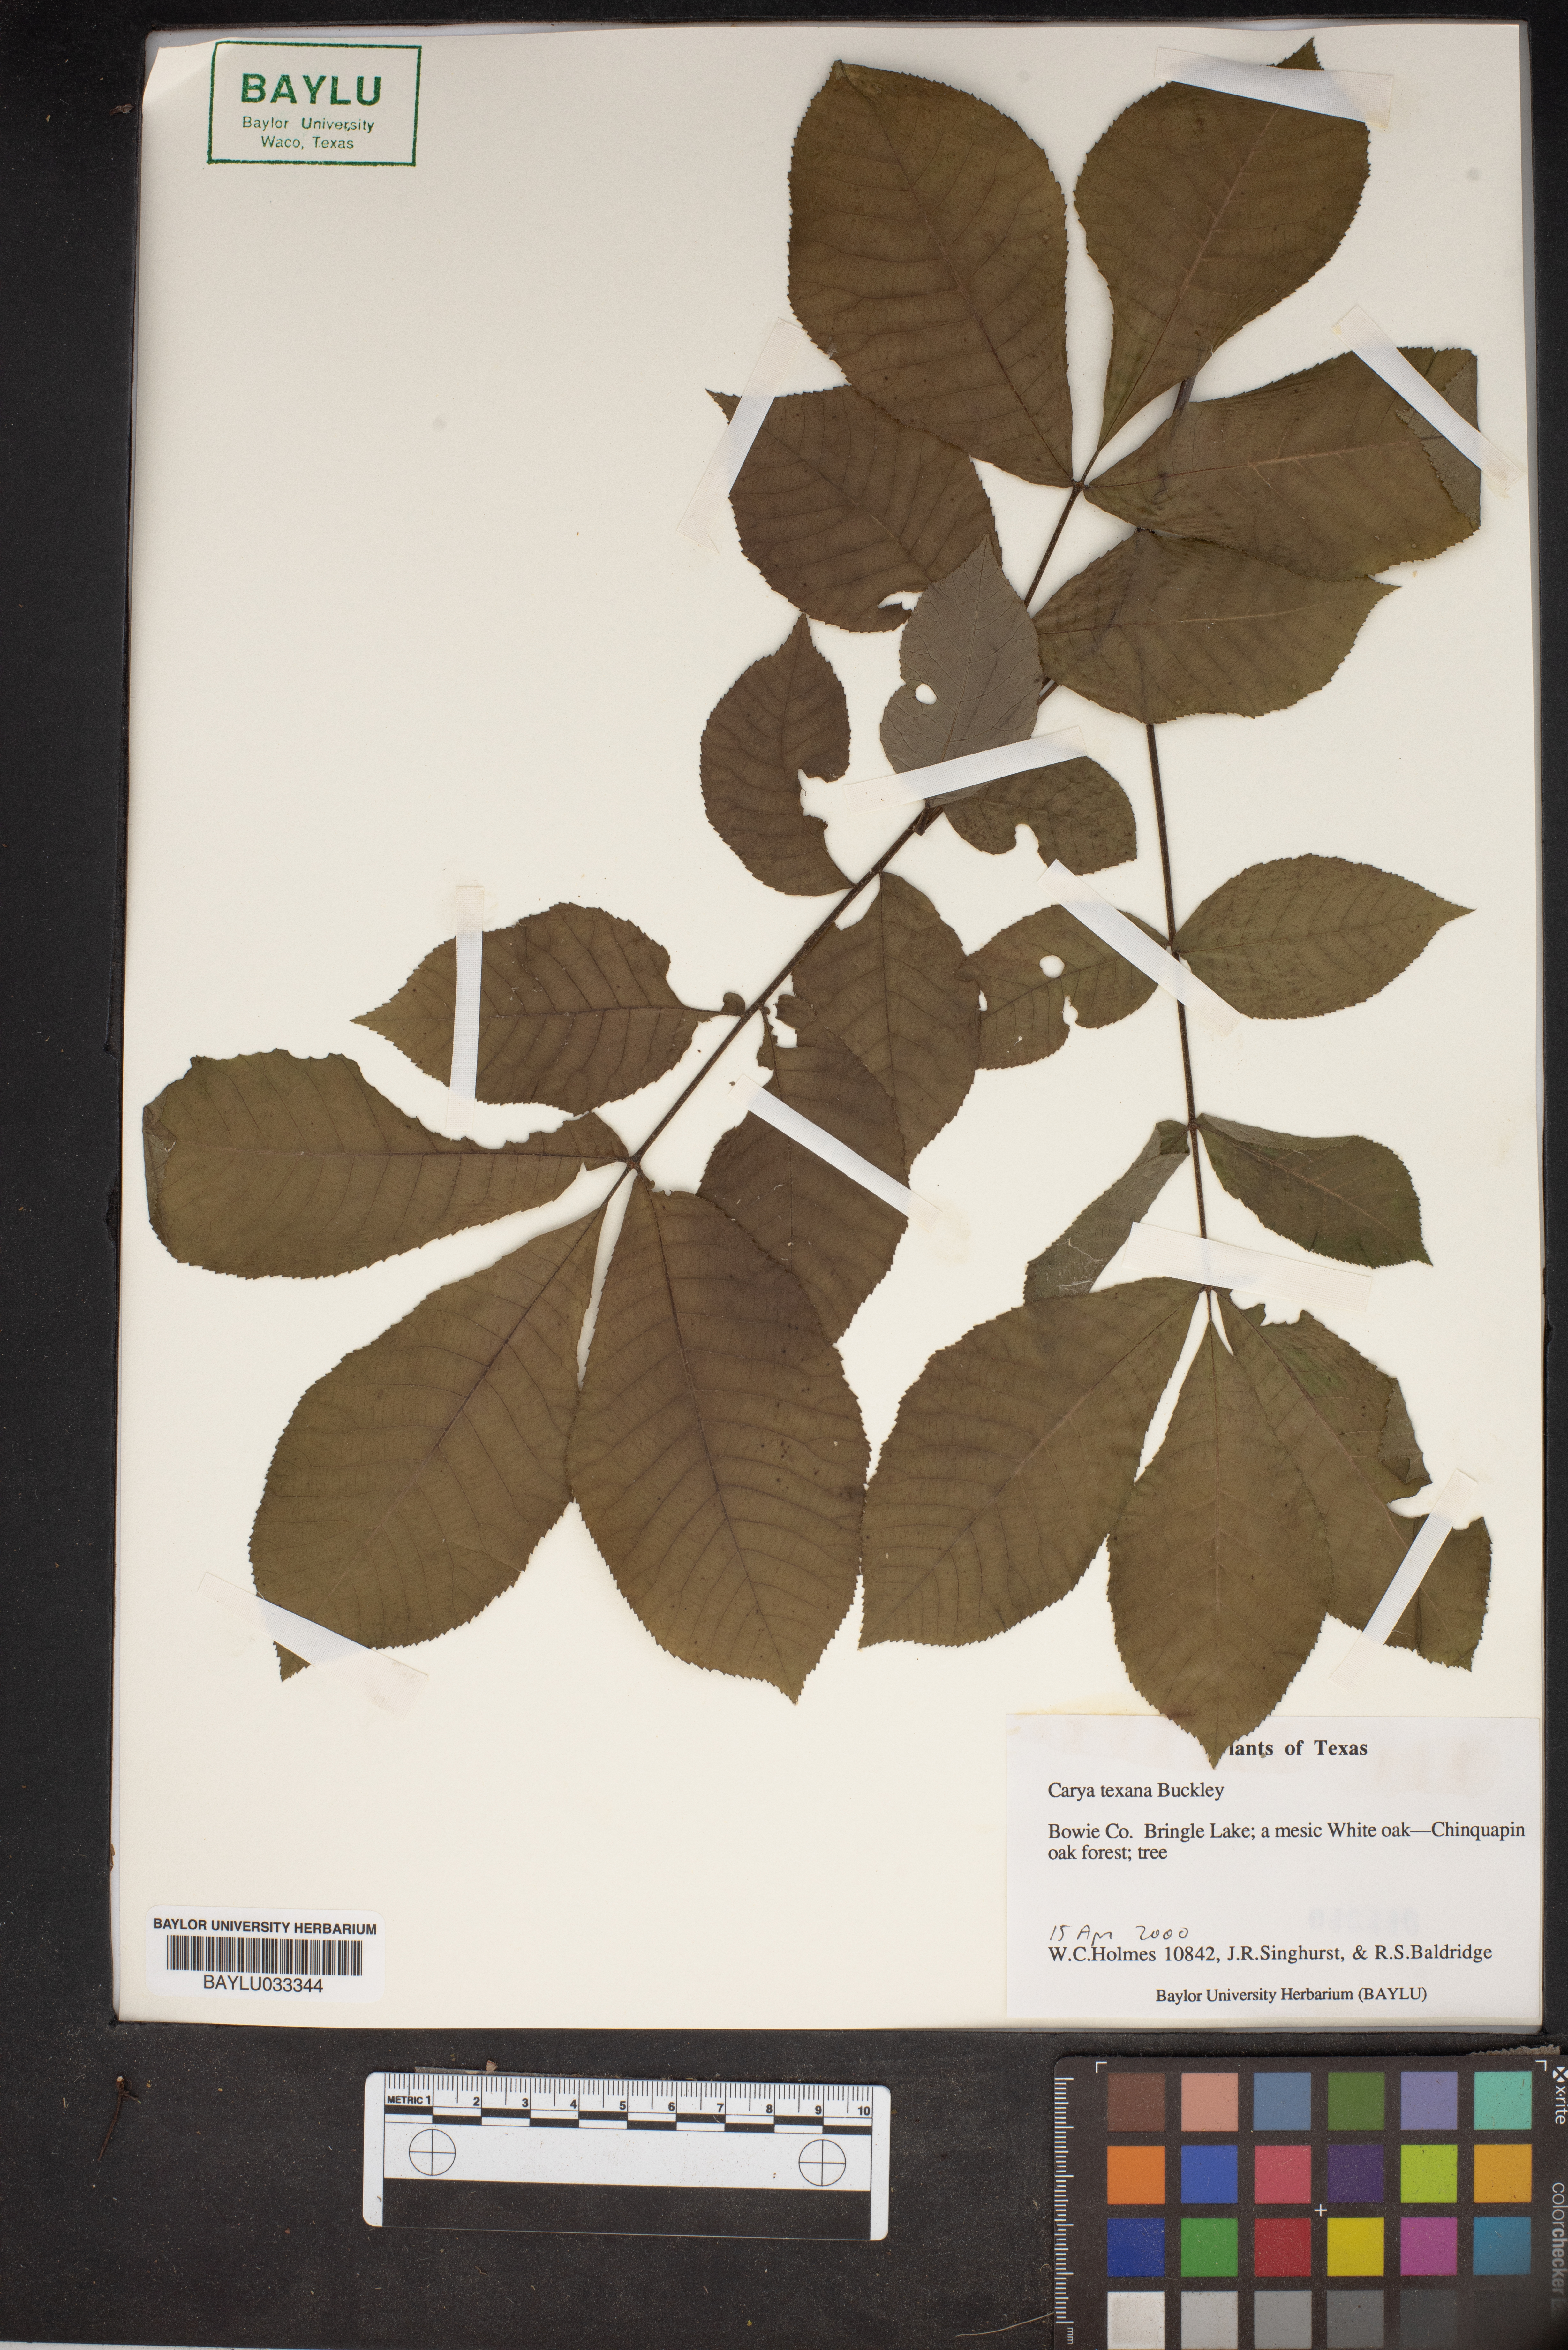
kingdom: Plantae
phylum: Tracheophyta
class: Magnoliopsida
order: Fagales
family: Juglandaceae
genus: Carya
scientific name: Carya texana
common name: Black hickory
